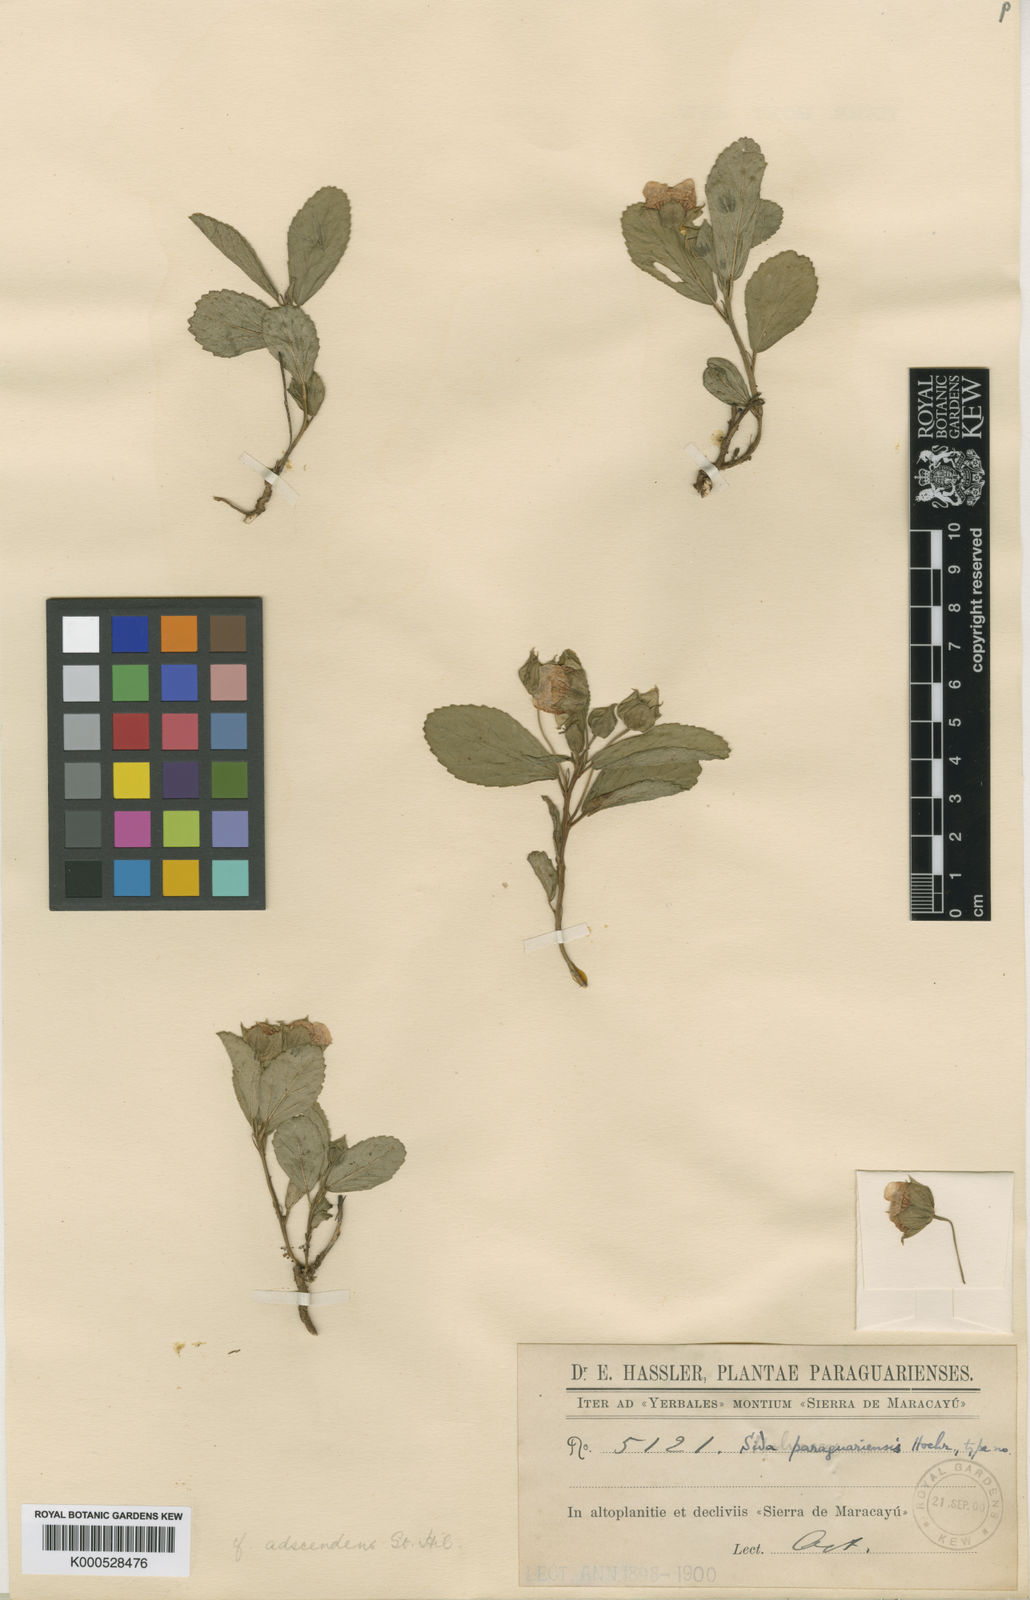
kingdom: Plantae
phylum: Tracheophyta
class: Magnoliopsida
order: Malvales
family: Malvaceae
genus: Sida
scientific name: Sida adscendens
